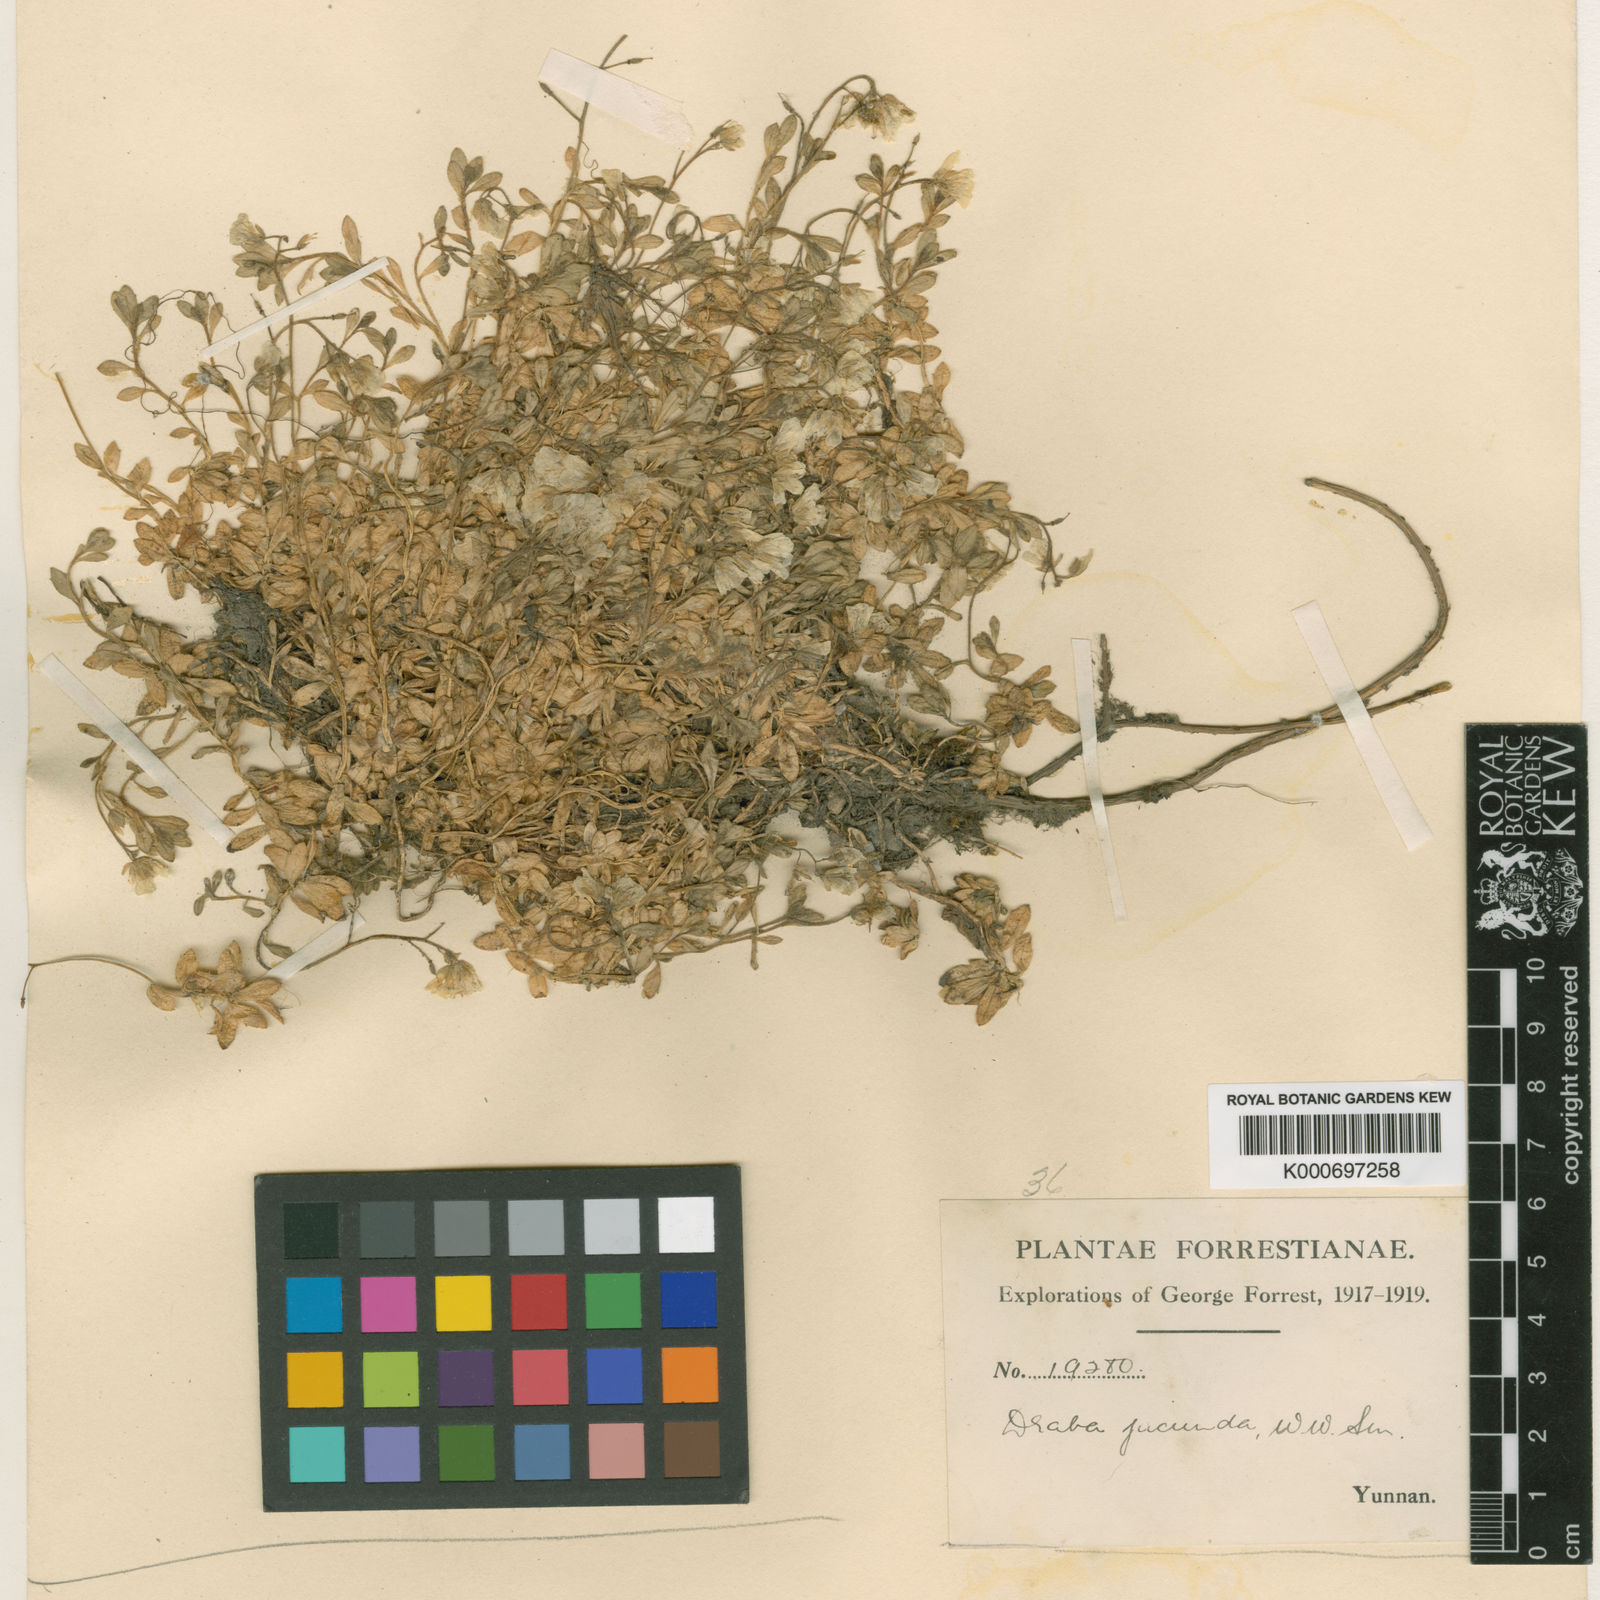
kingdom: Plantae
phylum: Tracheophyta
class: Magnoliopsida
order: Brassicales
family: Brassicaceae
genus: Draba
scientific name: Draba jucunda
